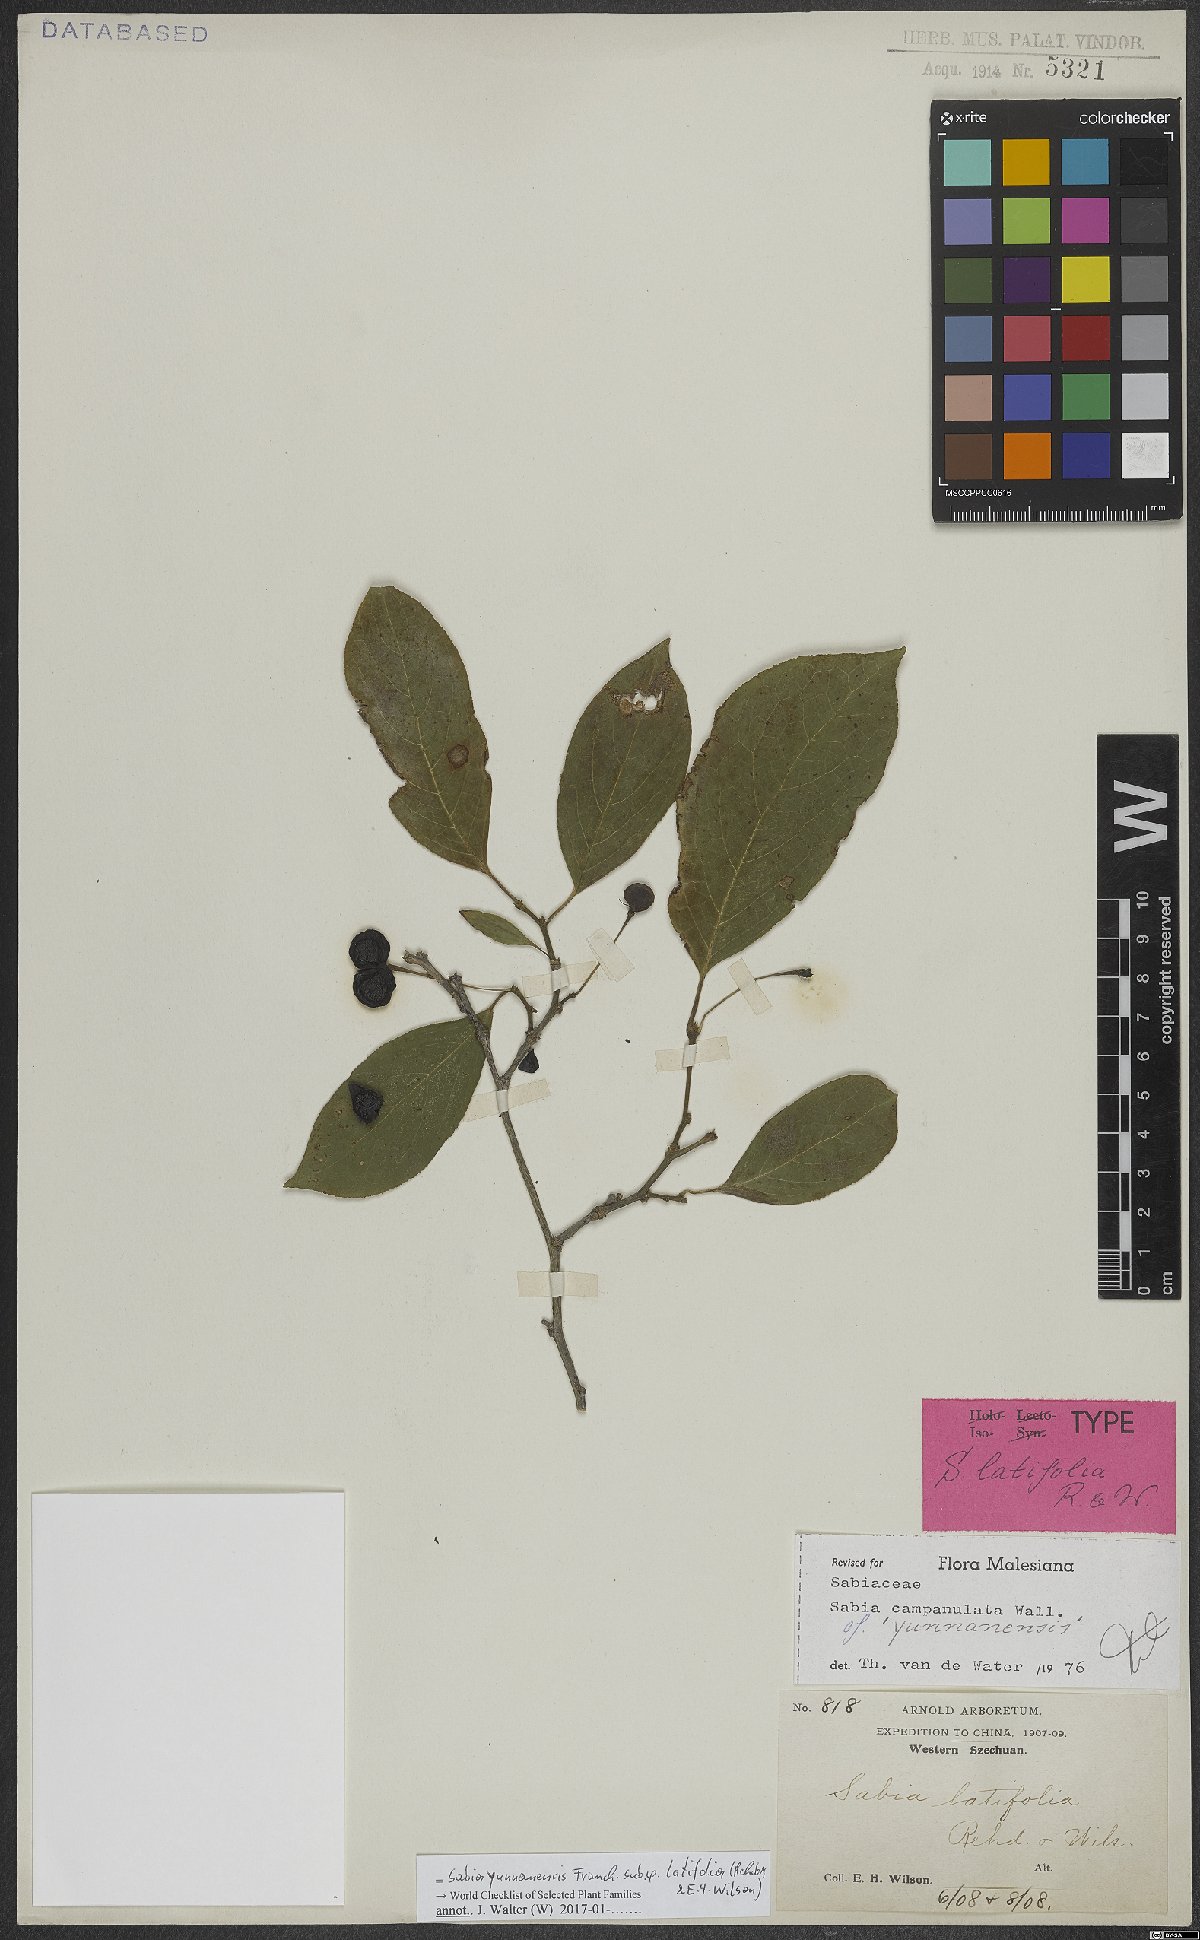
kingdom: Plantae
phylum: Tracheophyta
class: Magnoliopsida
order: Proteales
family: Sabiaceae
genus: Sabia
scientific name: Sabia yunnanensis
